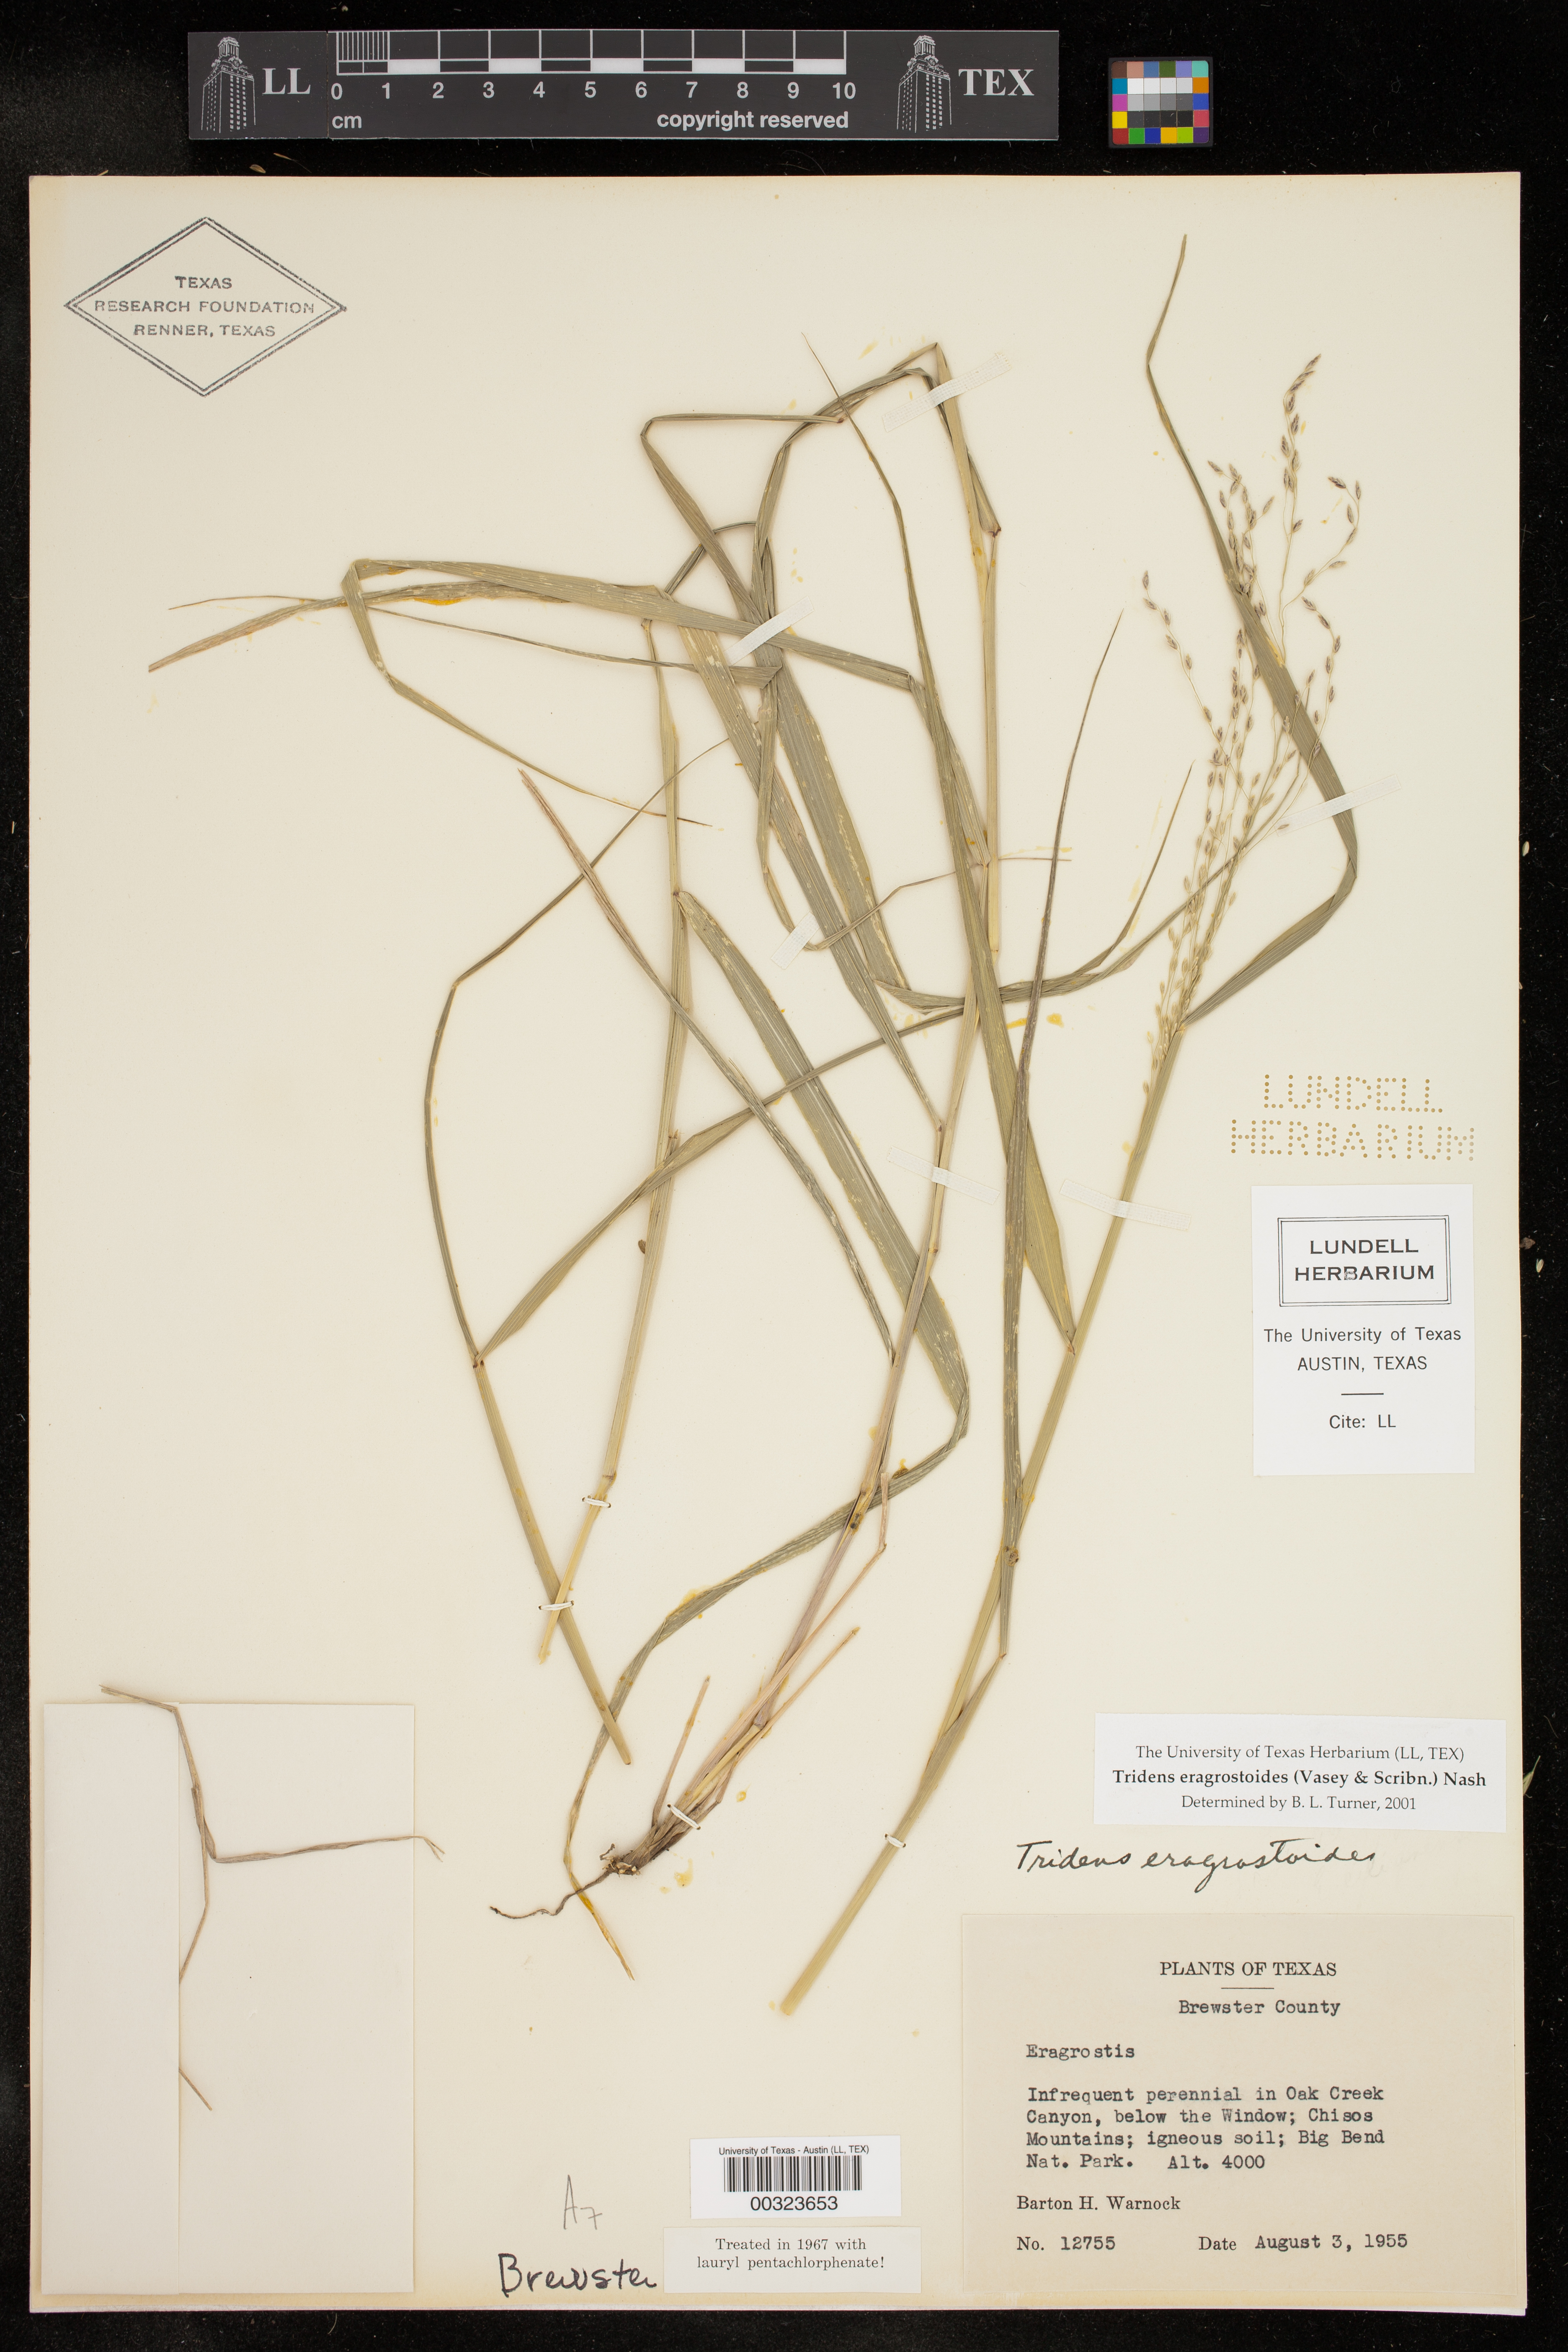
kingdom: Plantae
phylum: Tracheophyta
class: Liliopsida
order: Poales
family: Poaceae
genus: Triplasiella
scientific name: Triplasiella eragrostoides
